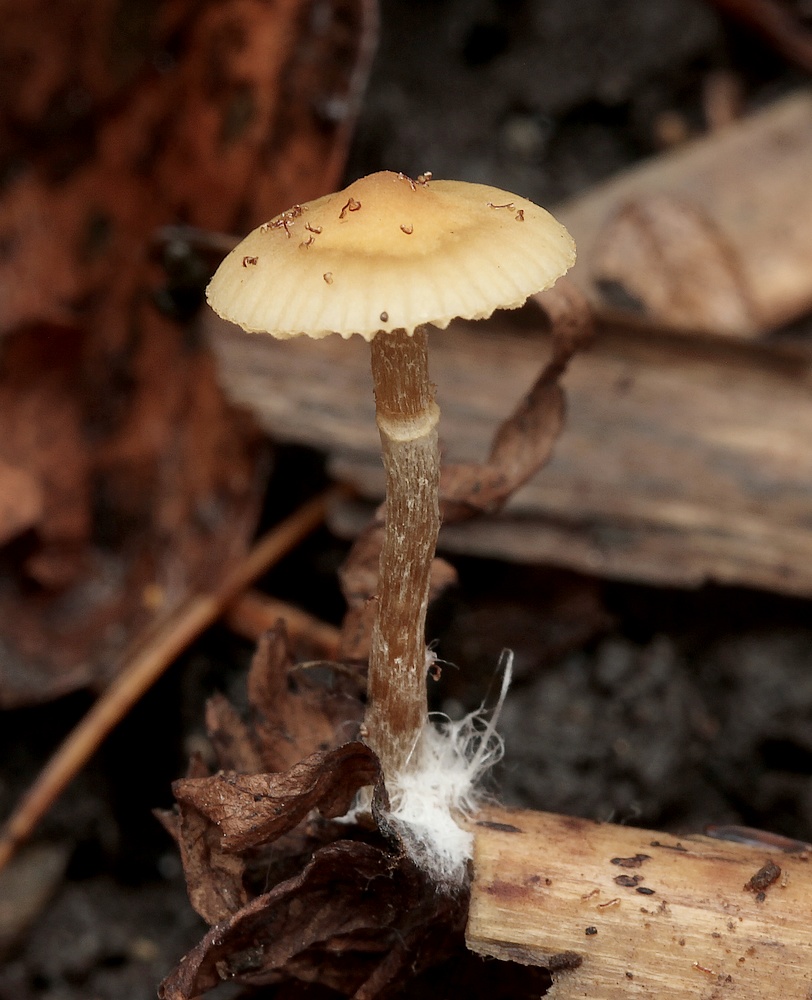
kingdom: Fungi
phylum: Basidiomycota
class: Agaricomycetes
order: Agaricales
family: Tubariaceae
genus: Tubaria
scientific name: Tubaria conspersa
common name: bleg fnughat
